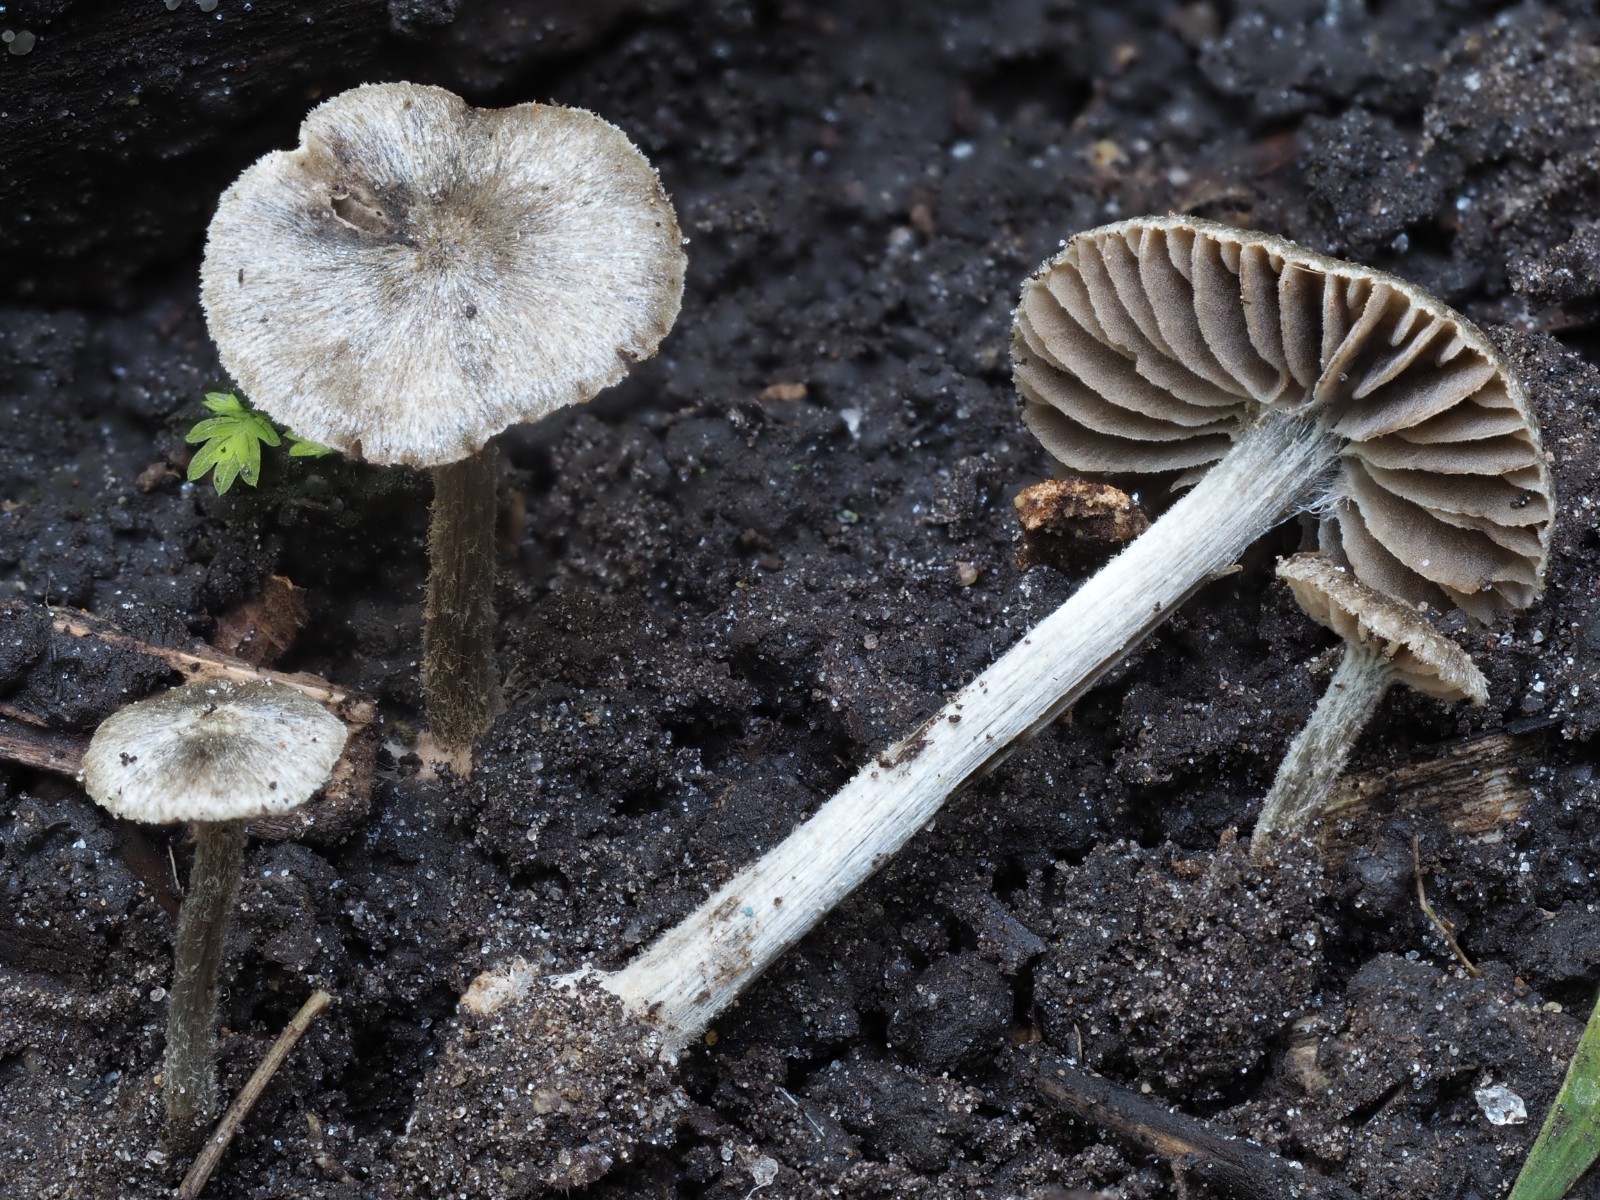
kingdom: Fungi
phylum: Basidiomycota
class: Agaricomycetes
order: Agaricales
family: Entolomataceae
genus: Entoloma
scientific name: Entoloma araneosum
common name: spindelvævs-rødblad
